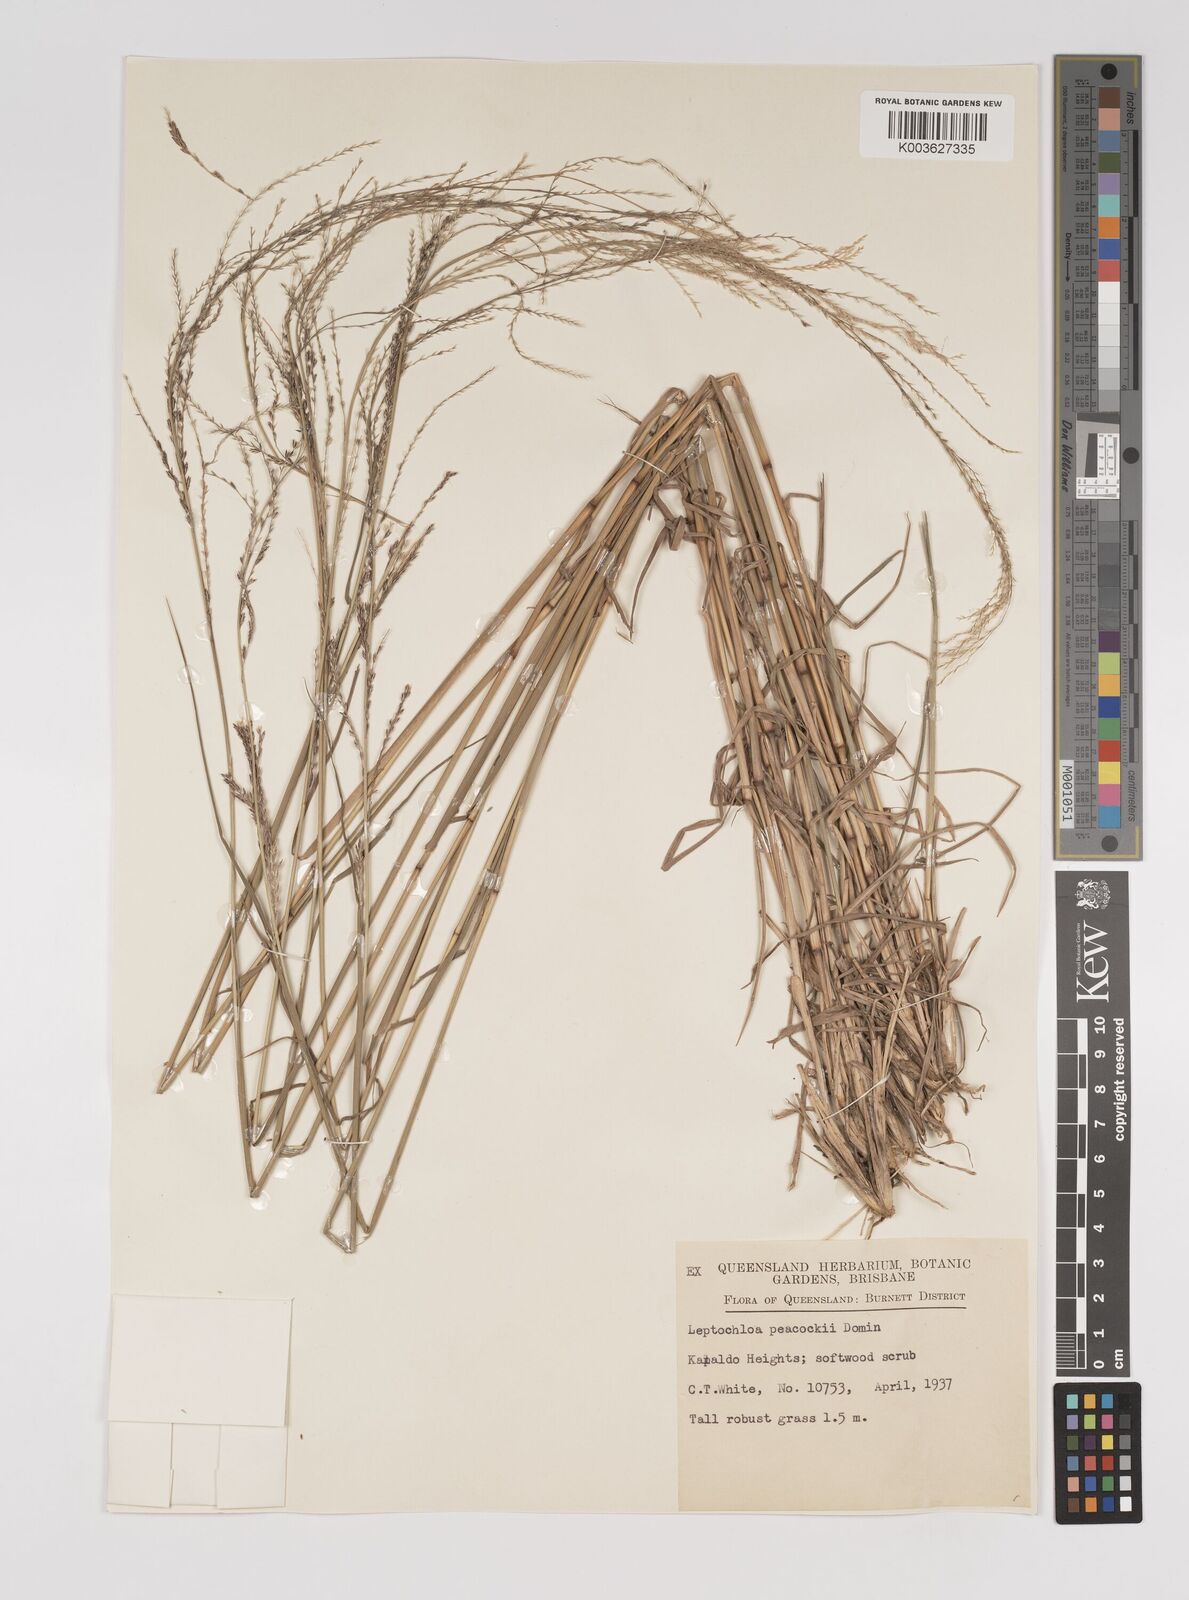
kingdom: Plantae
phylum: Tracheophyta
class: Liliopsida
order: Poales
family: Poaceae
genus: Leptochloa
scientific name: Leptochloa decipiens
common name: Australian sprangletop
